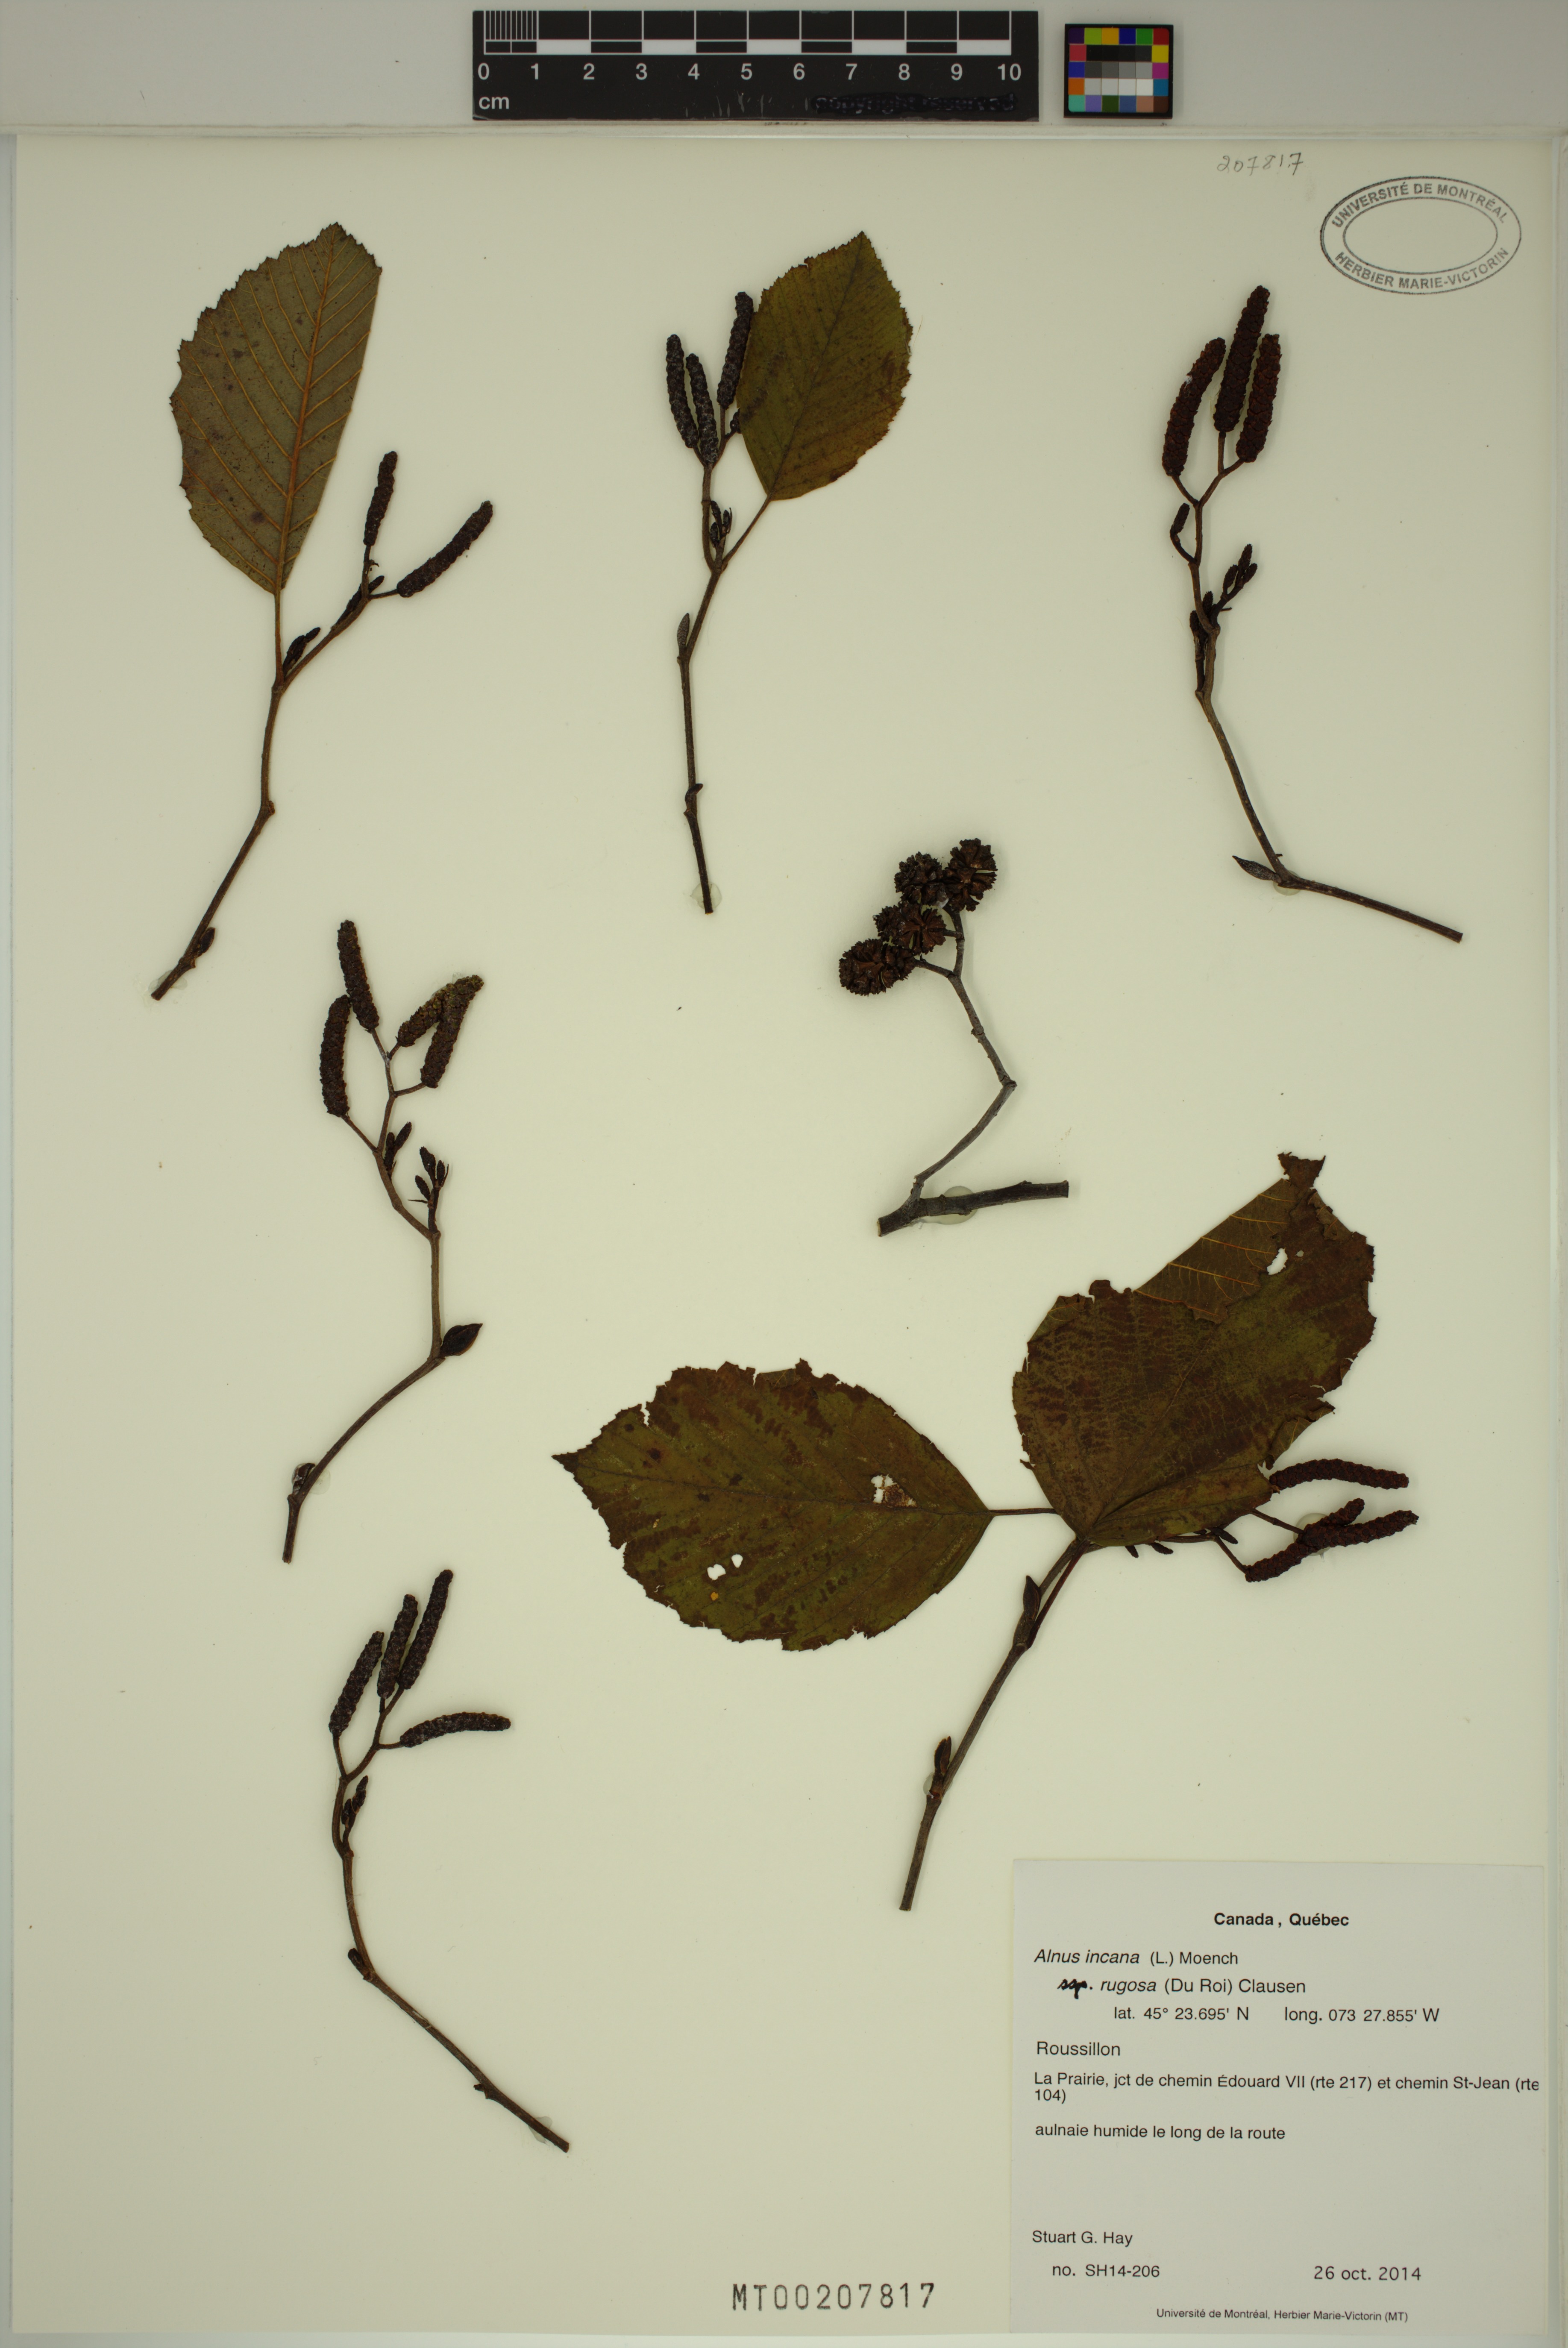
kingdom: Plantae
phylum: Tracheophyta
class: Magnoliopsida
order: Fagales
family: Betulaceae
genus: Alnus
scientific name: Alnus incana
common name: Grey alder
